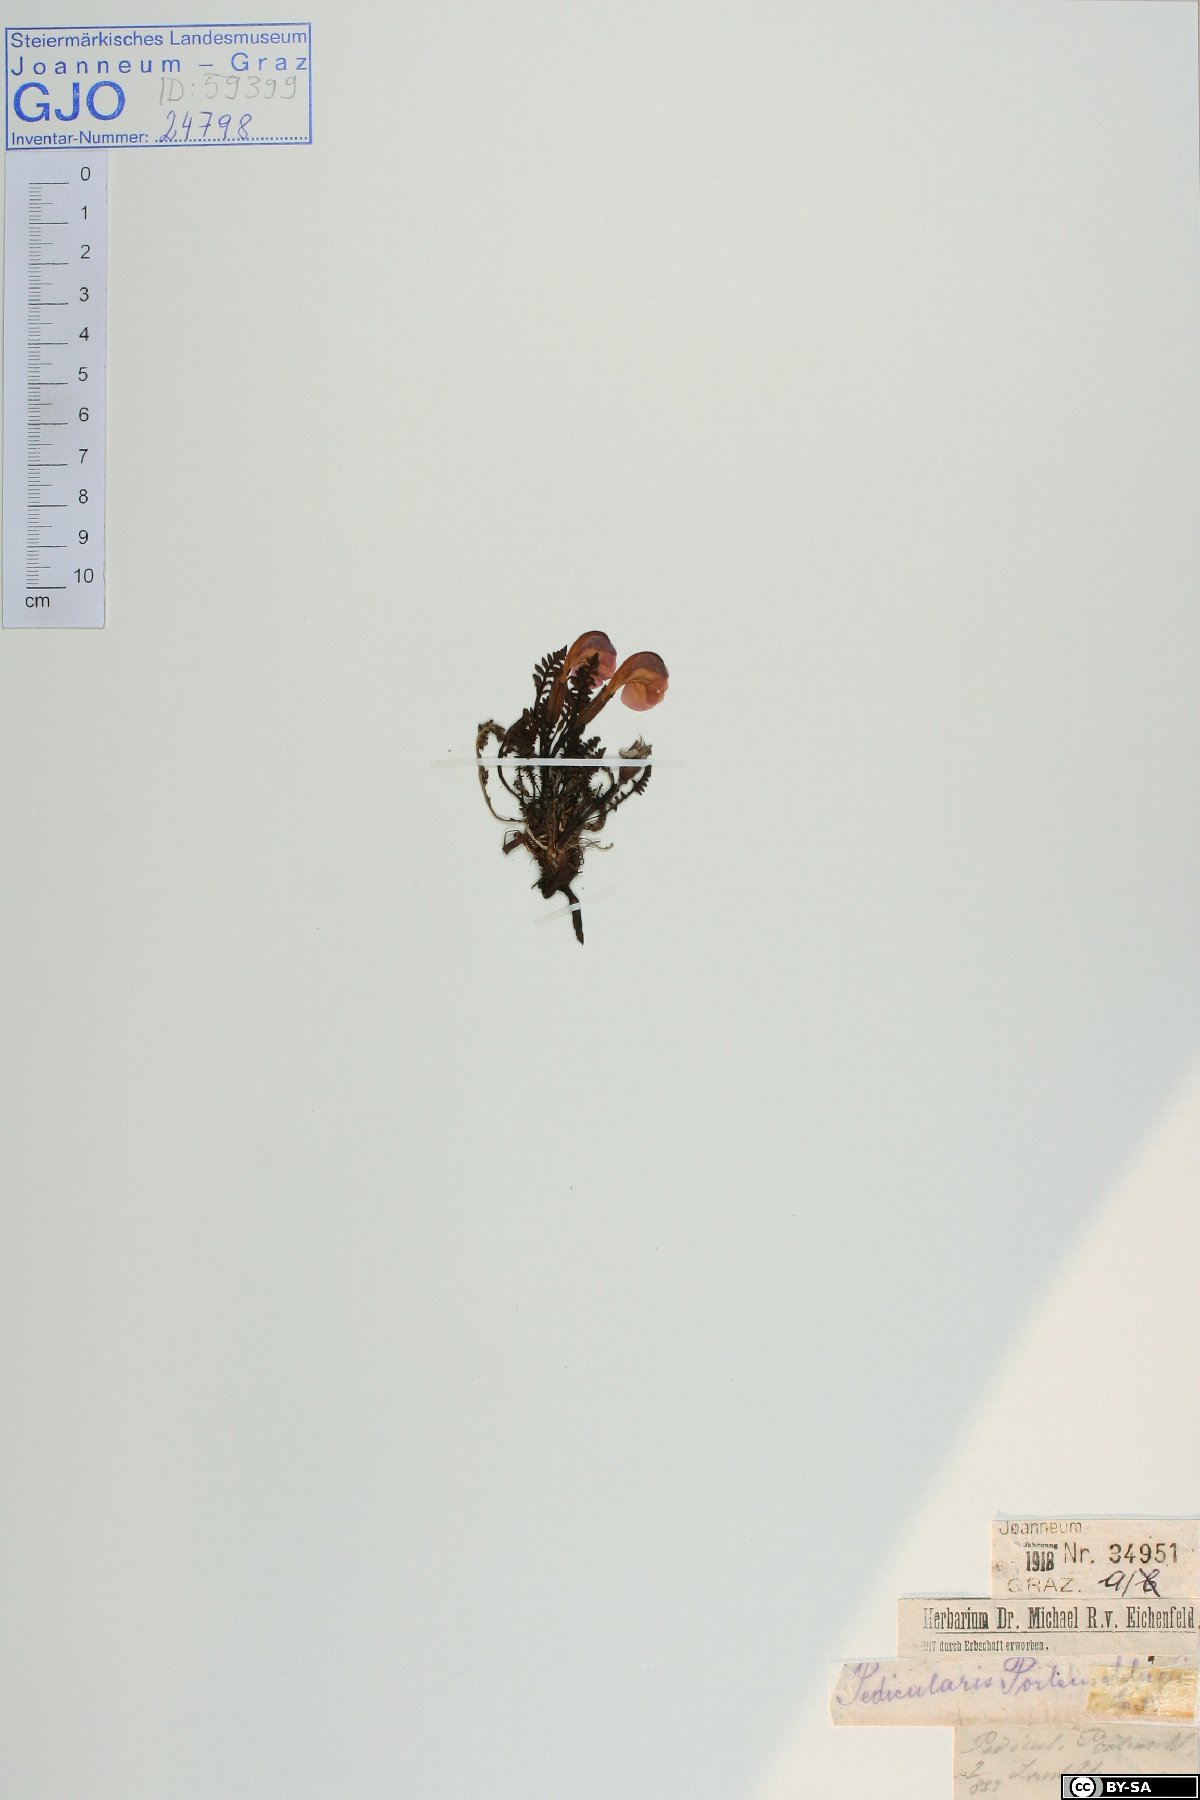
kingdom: Plantae
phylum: Tracheophyta
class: Magnoliopsida
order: Lamiales
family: Orobanchaceae
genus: Pedicularis
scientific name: Pedicularis portenschlagii
